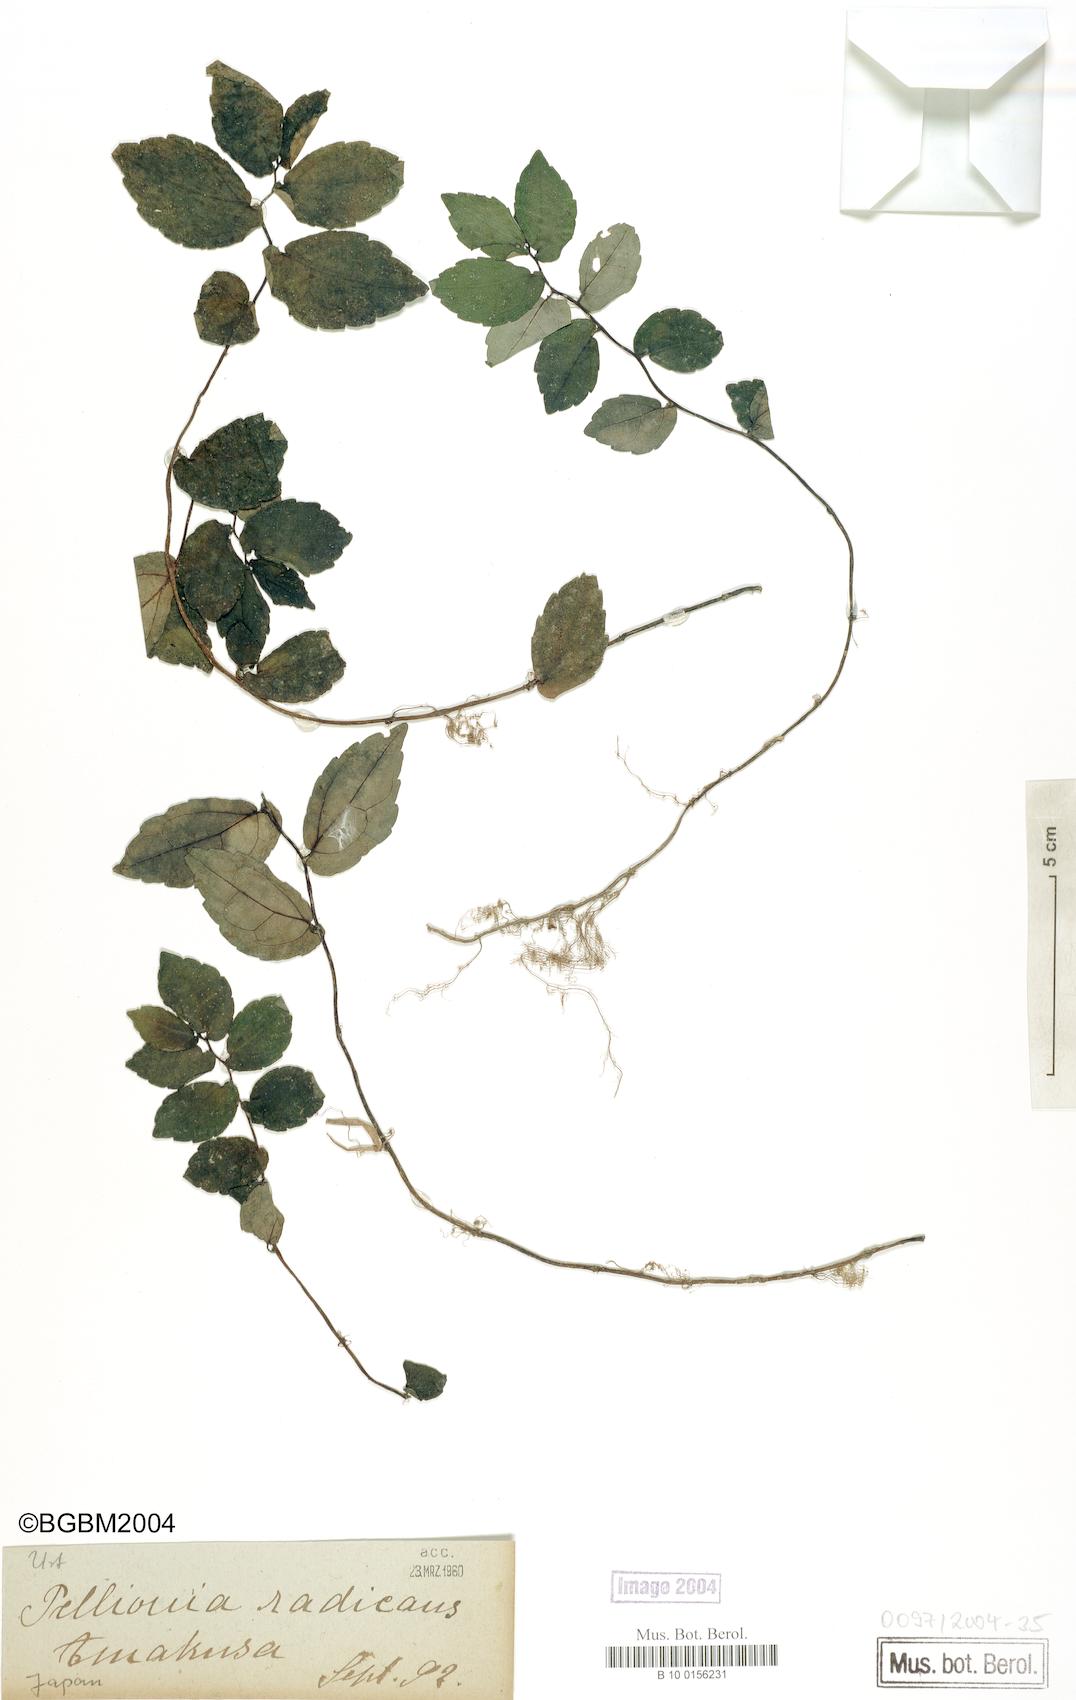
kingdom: Plantae
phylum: Tracheophyta
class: Magnoliopsida
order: Rosales
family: Urticaceae
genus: Elatostema
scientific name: Elatostema radicans
